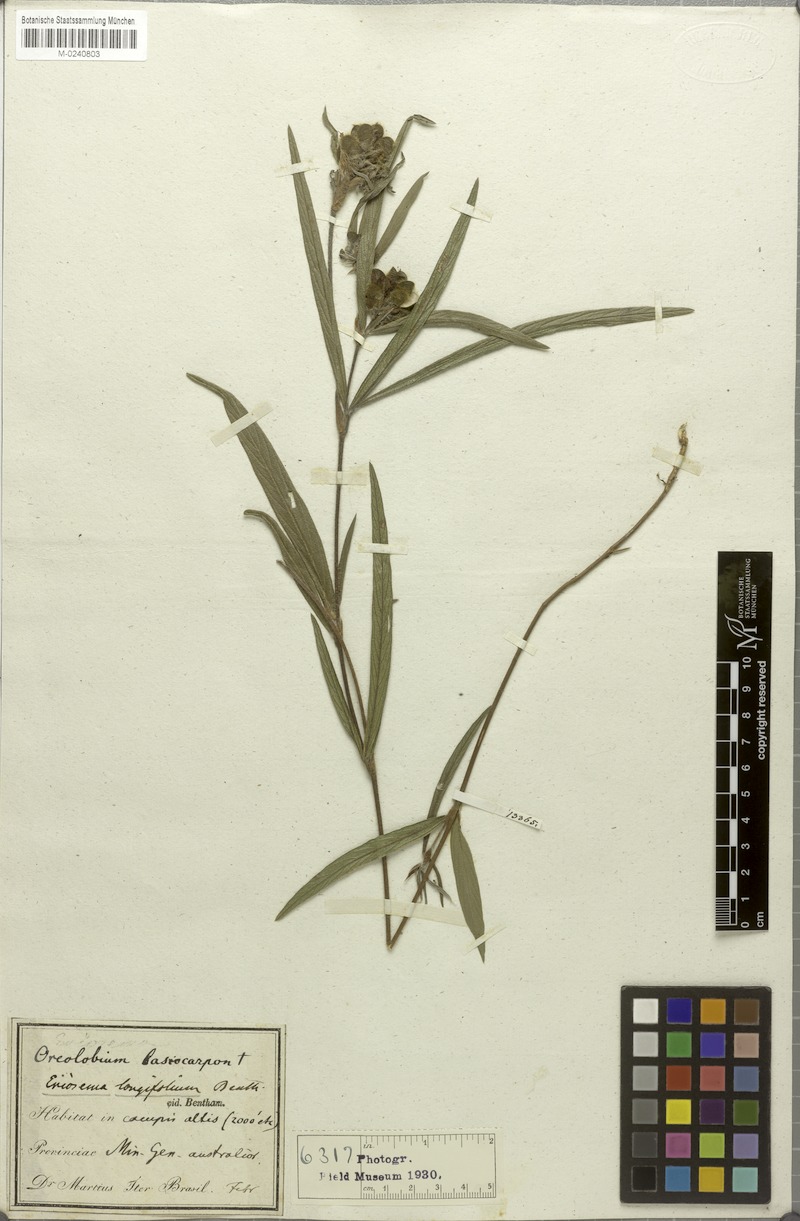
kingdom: Plantae
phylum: Tracheophyta
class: Magnoliopsida
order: Fabales
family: Fabaceae
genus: Eriosema
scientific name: Eriosema longifolium
